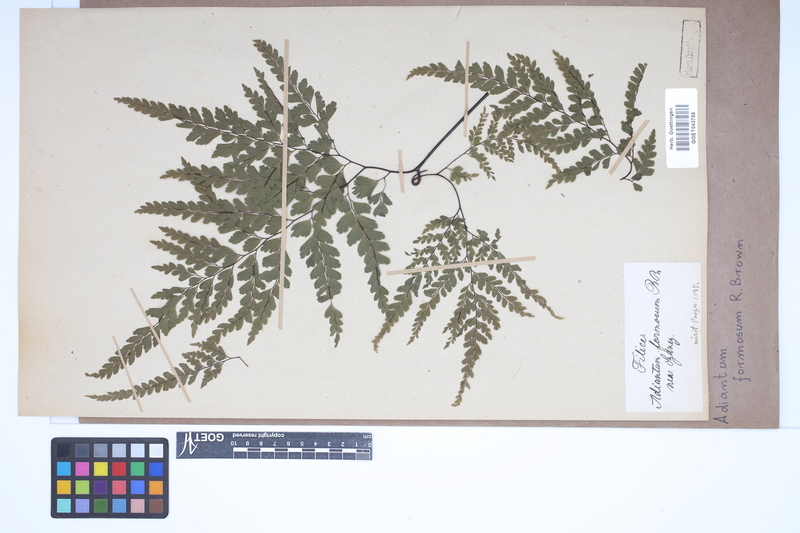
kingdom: Plantae
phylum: Tracheophyta
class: Polypodiopsida
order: Polypodiales
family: Pteridaceae
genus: Adiantum
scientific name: Adiantum formosum
